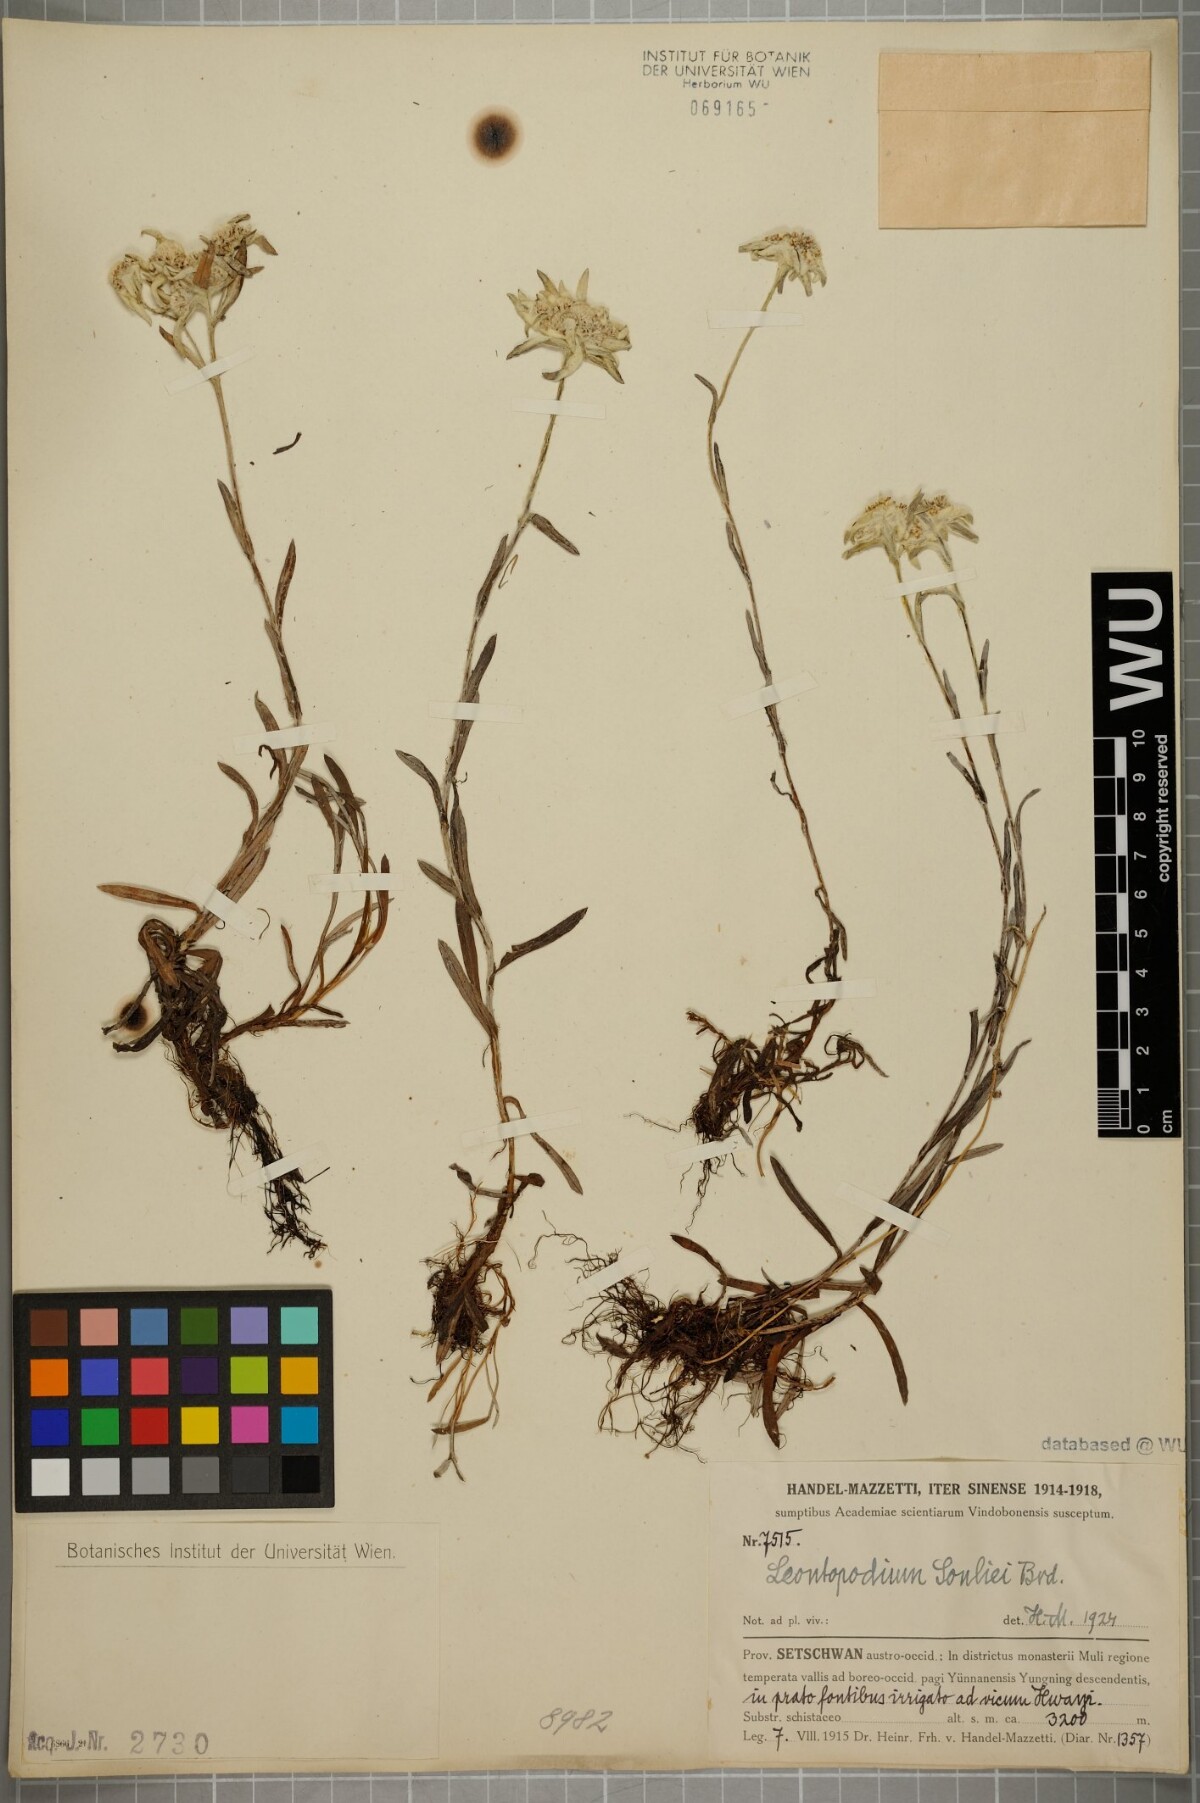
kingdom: Plantae
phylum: Tracheophyta
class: Magnoliopsida
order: Asterales
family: Asteraceae
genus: Leontopodium
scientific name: Leontopodium souliei
